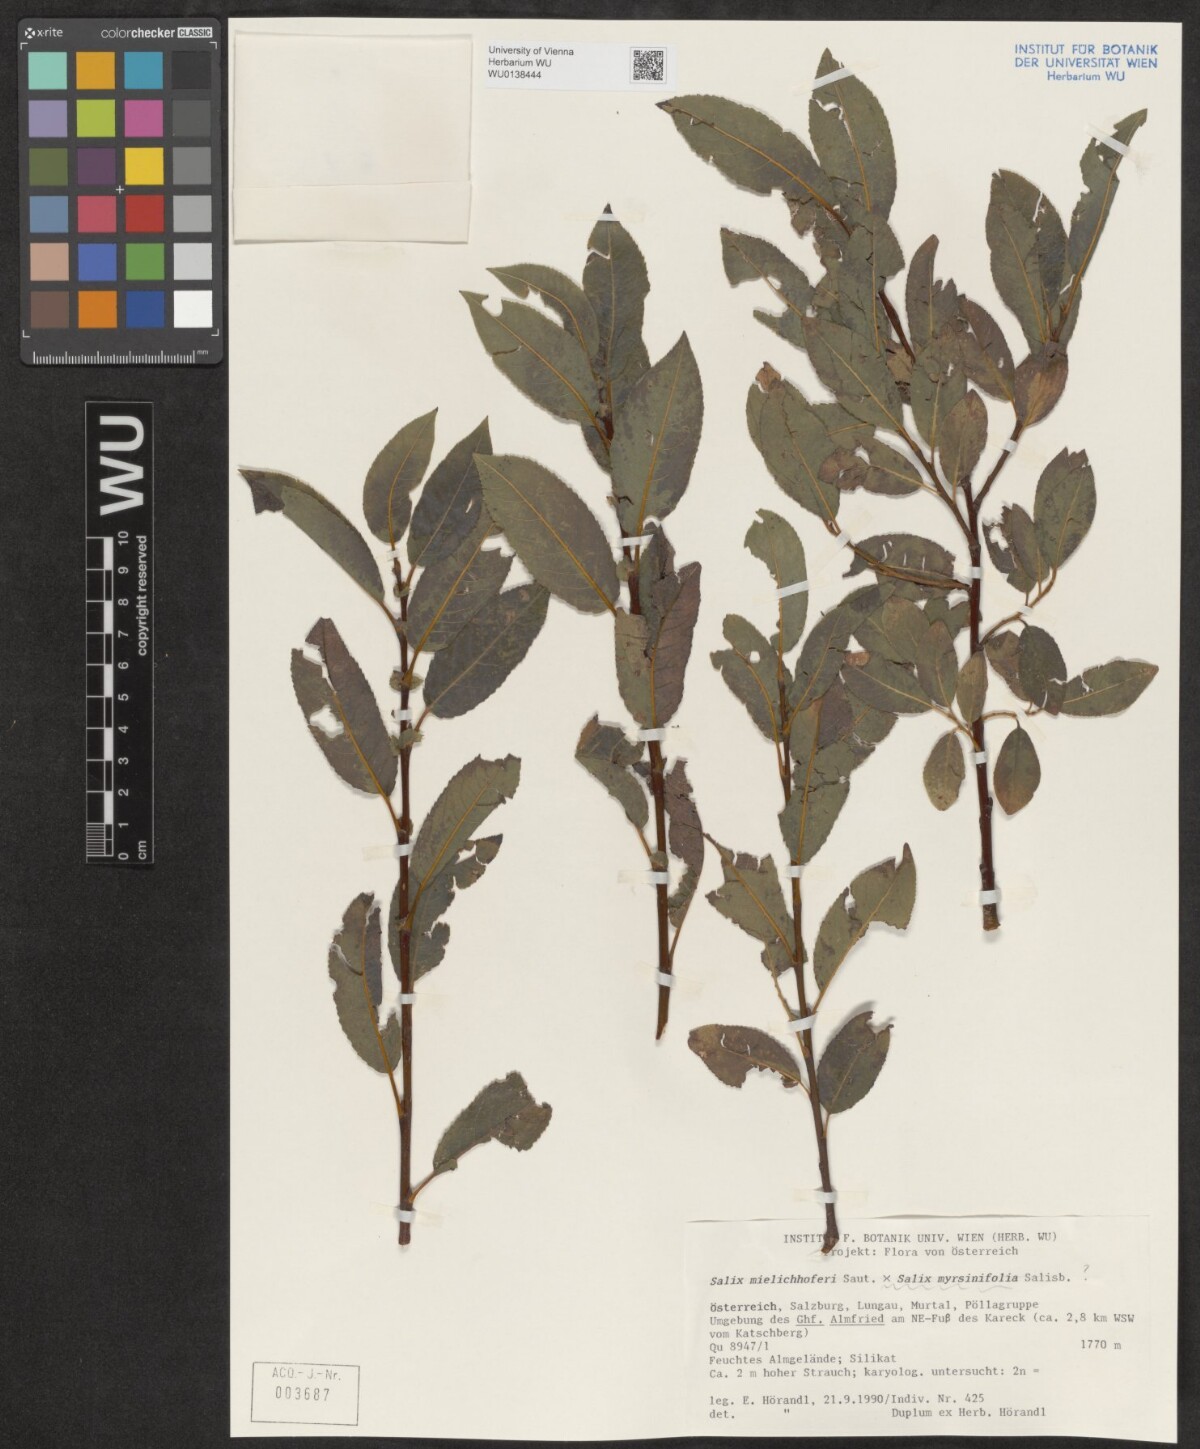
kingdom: Plantae
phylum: Tracheophyta
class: Magnoliopsida
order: Malpighiales
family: Salicaceae
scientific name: Salicaceae
